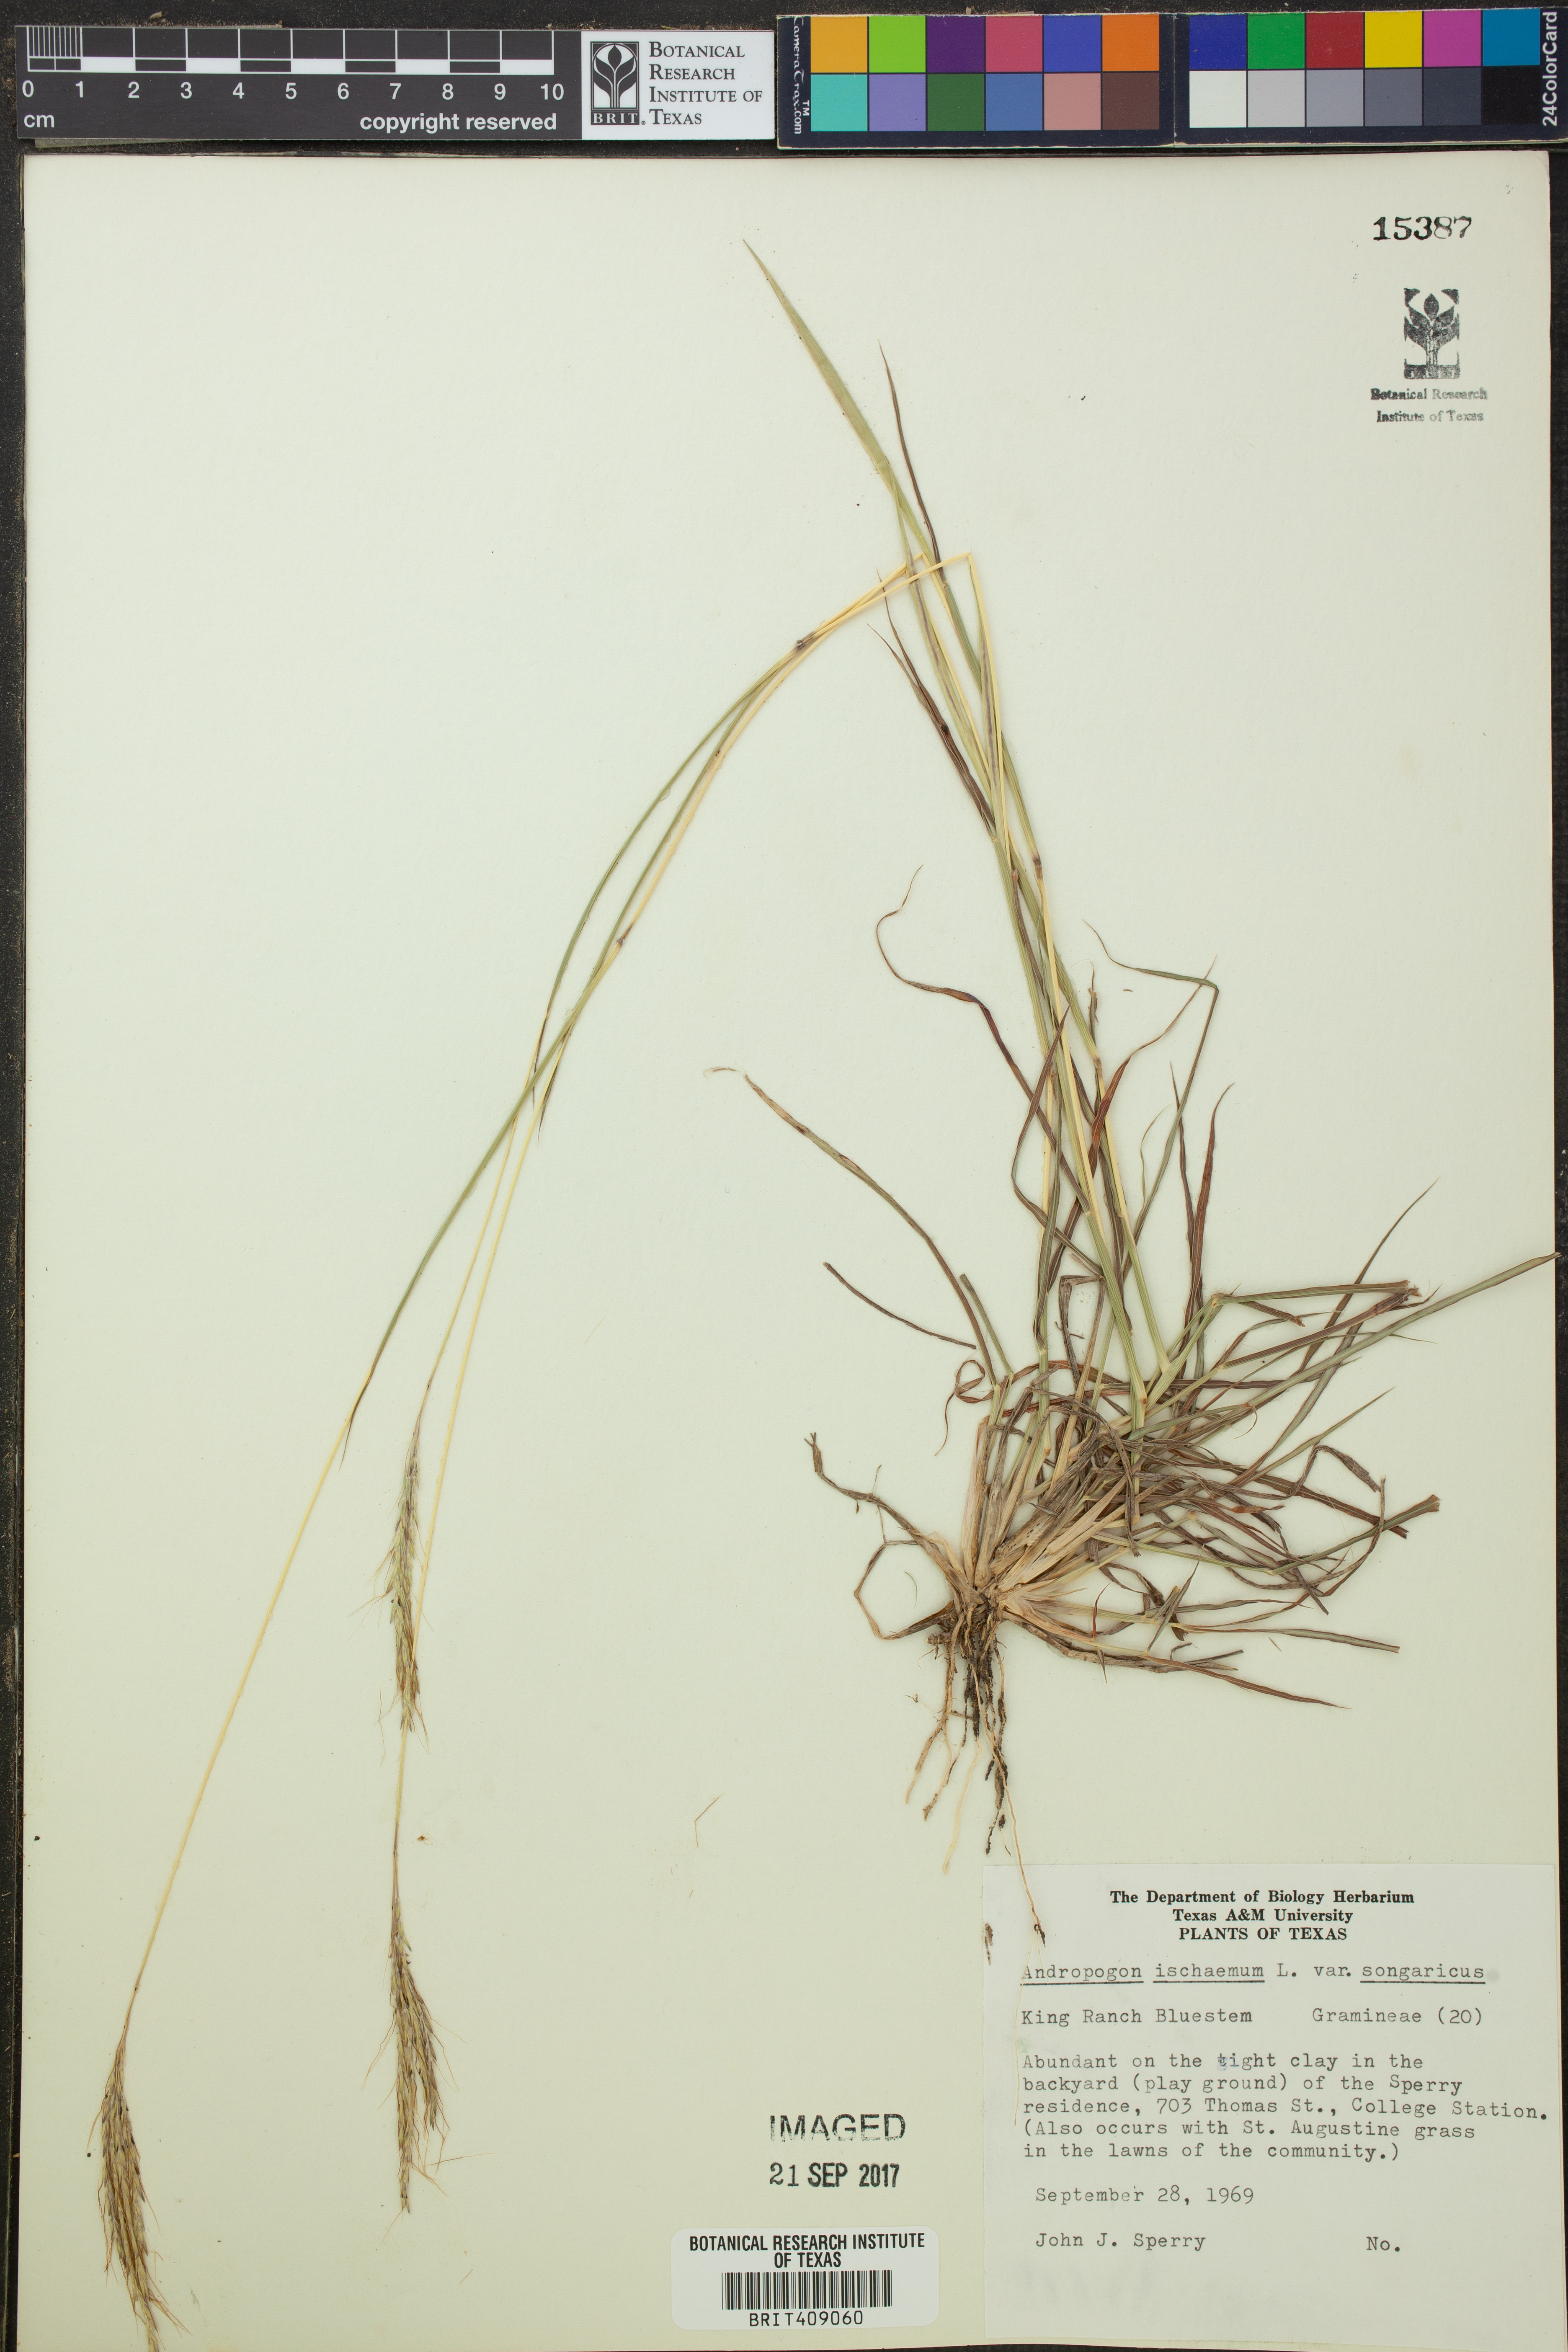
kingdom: Plantae
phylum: Tracheophyta
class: Liliopsida
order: Poales
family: Poaceae
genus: Bothriochloa
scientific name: Bothriochloa ischaemum
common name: Yellow bluestem
